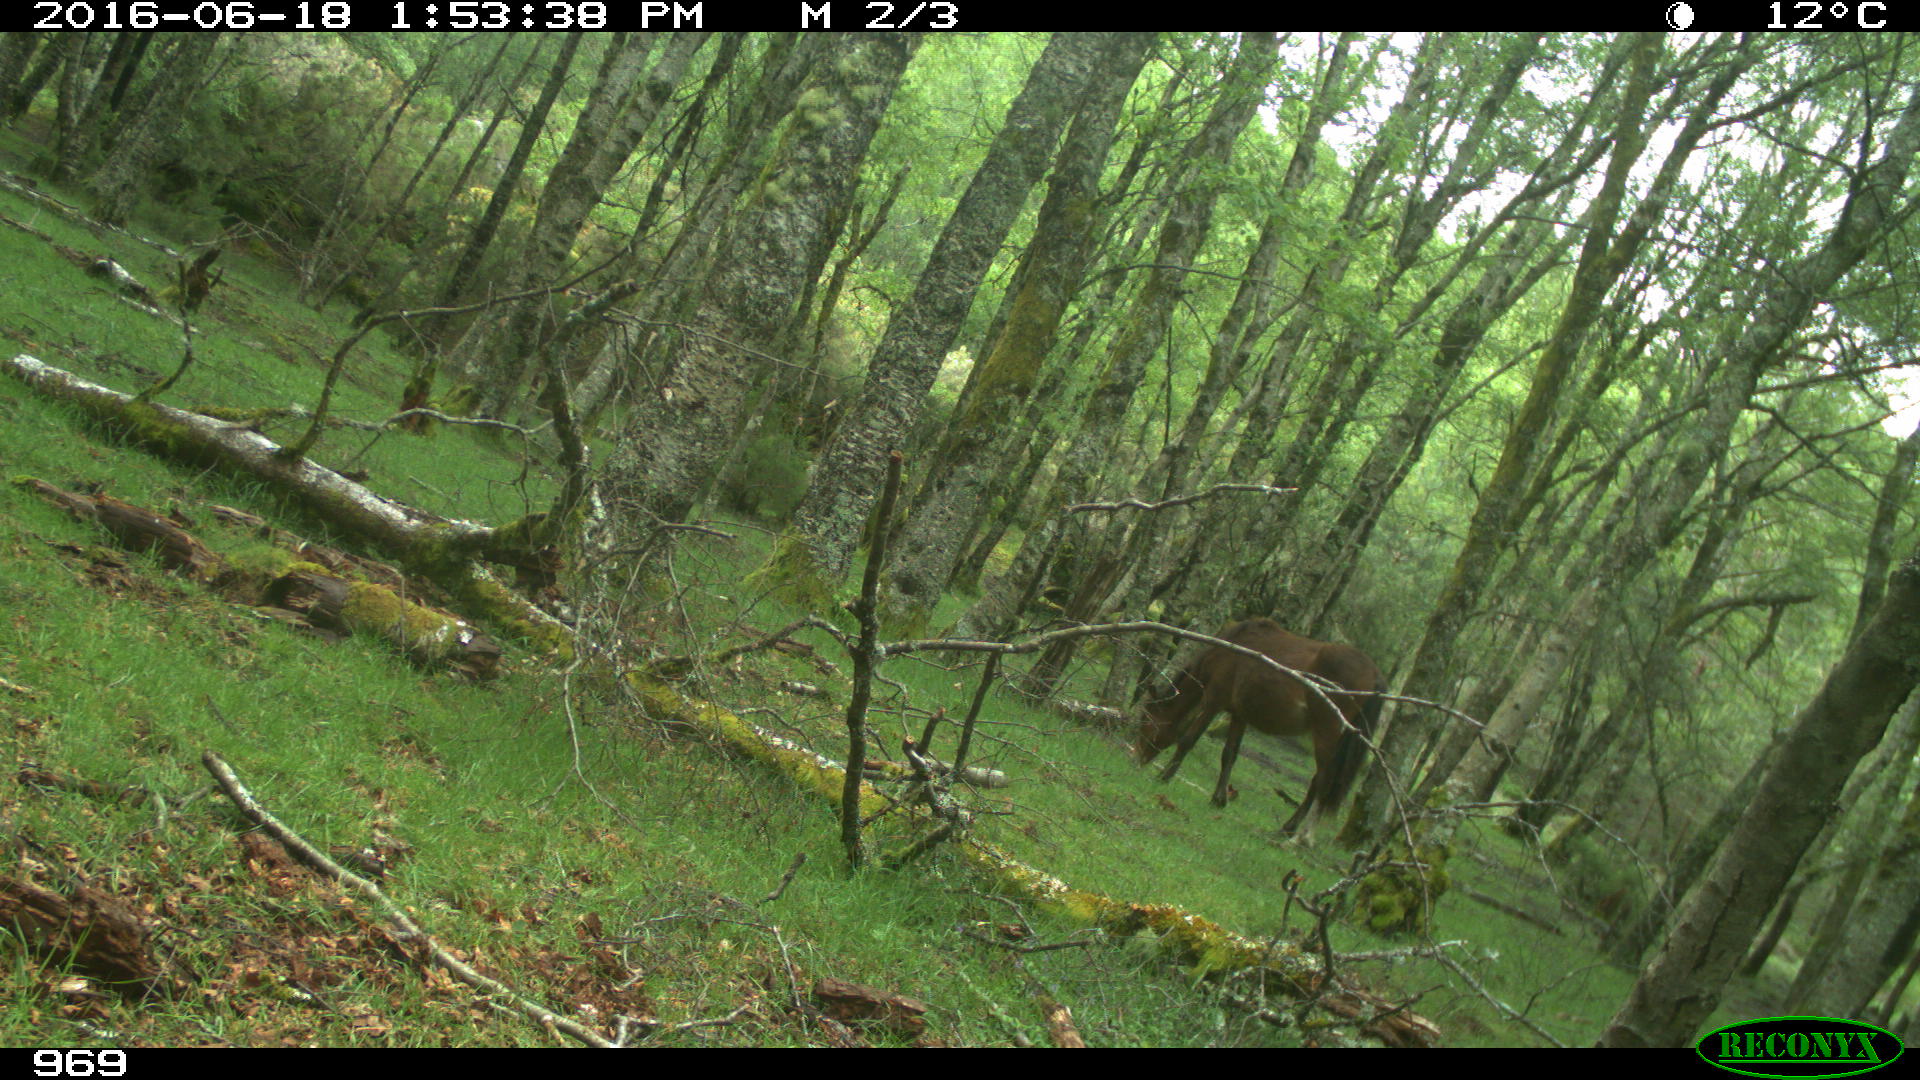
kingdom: Animalia
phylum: Chordata
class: Mammalia
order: Perissodactyla
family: Equidae
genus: Equus
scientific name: Equus caballus
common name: Horse
